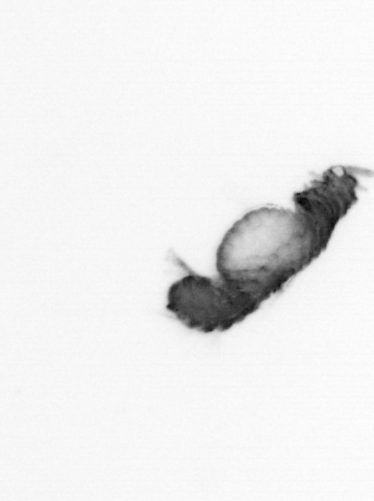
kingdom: Animalia
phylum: Annelida
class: Polychaeta
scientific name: Polychaeta
